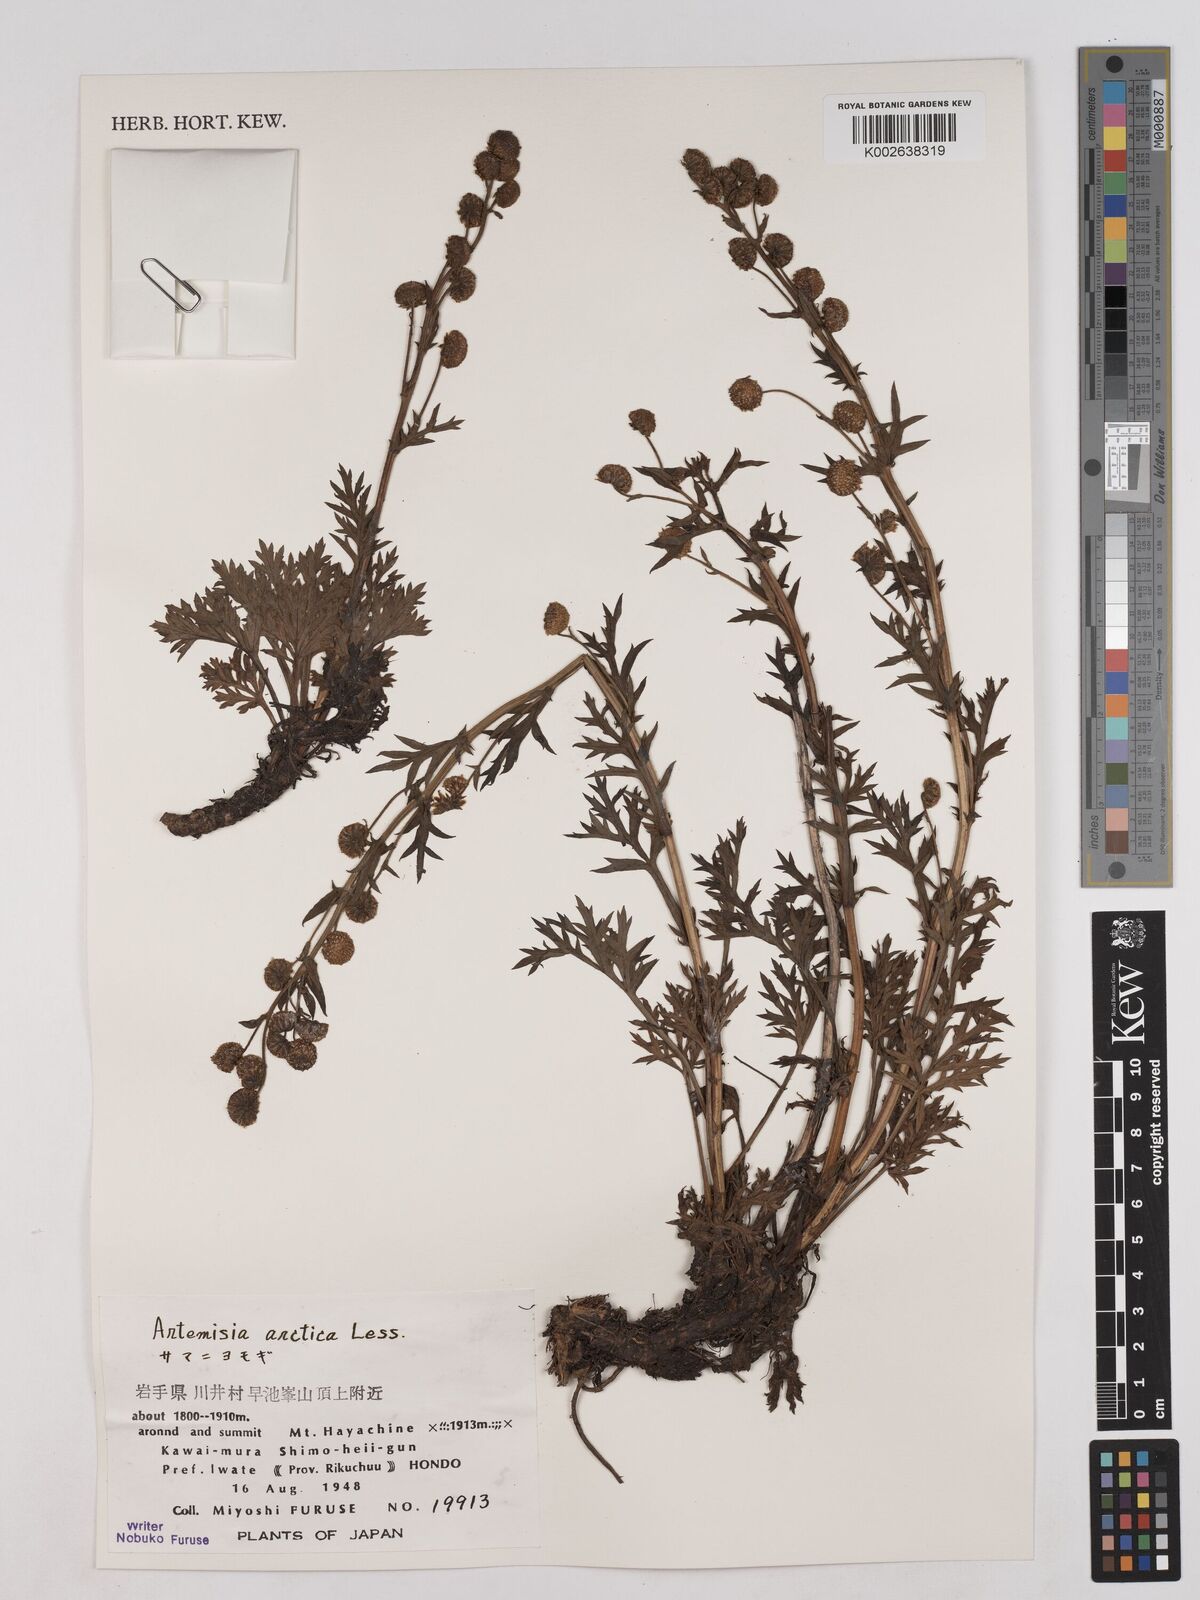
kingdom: Plantae
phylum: Tracheophyta
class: Magnoliopsida
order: Asterales
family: Asteraceae
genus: Artemisia
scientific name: Artemisia norvegica
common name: Norwegian mugwort
